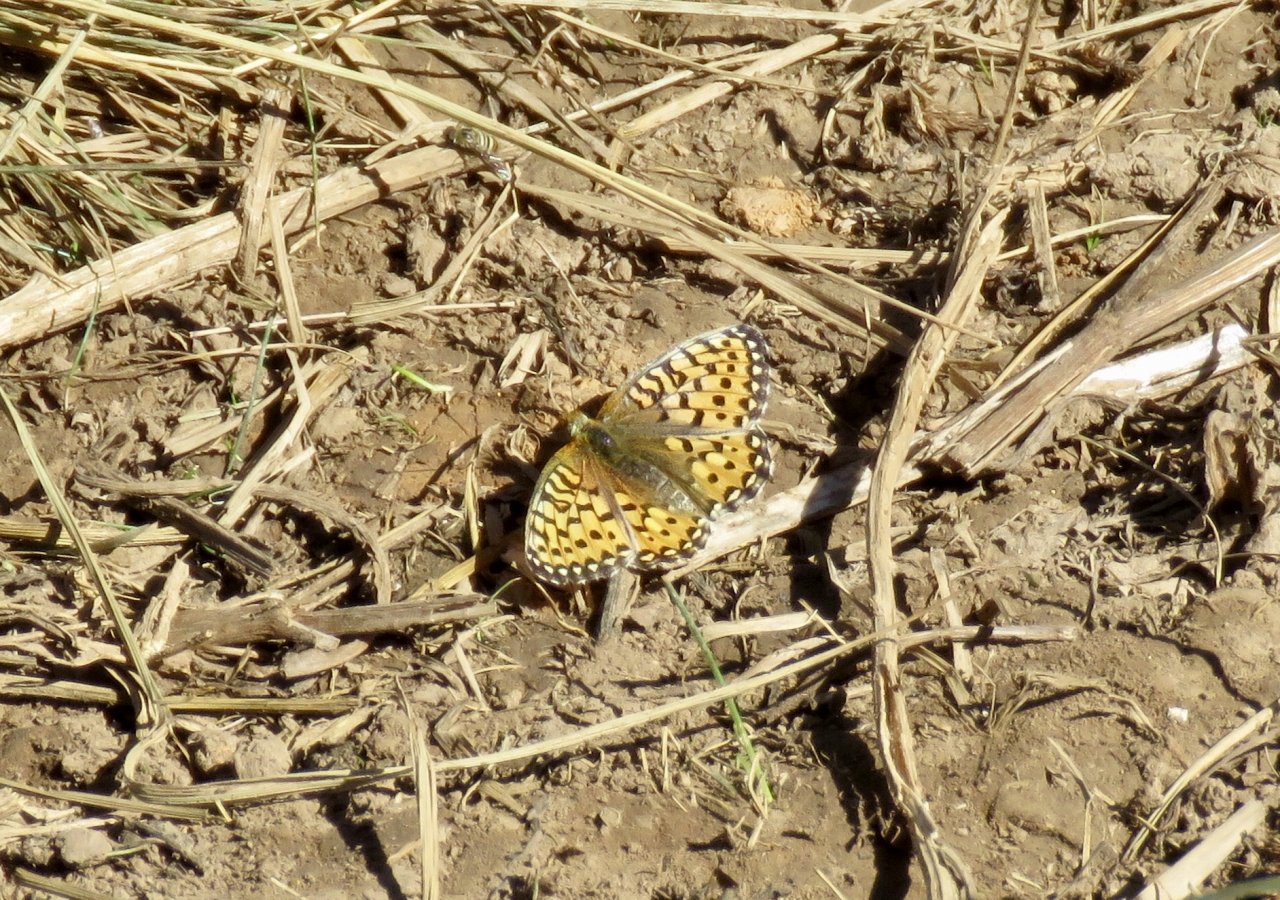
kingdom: Animalia
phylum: Arthropoda
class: Insecta
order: Lepidoptera
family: Nymphalidae
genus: Speyeria
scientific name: Speyeria mormonia
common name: Mormon Fritillary
